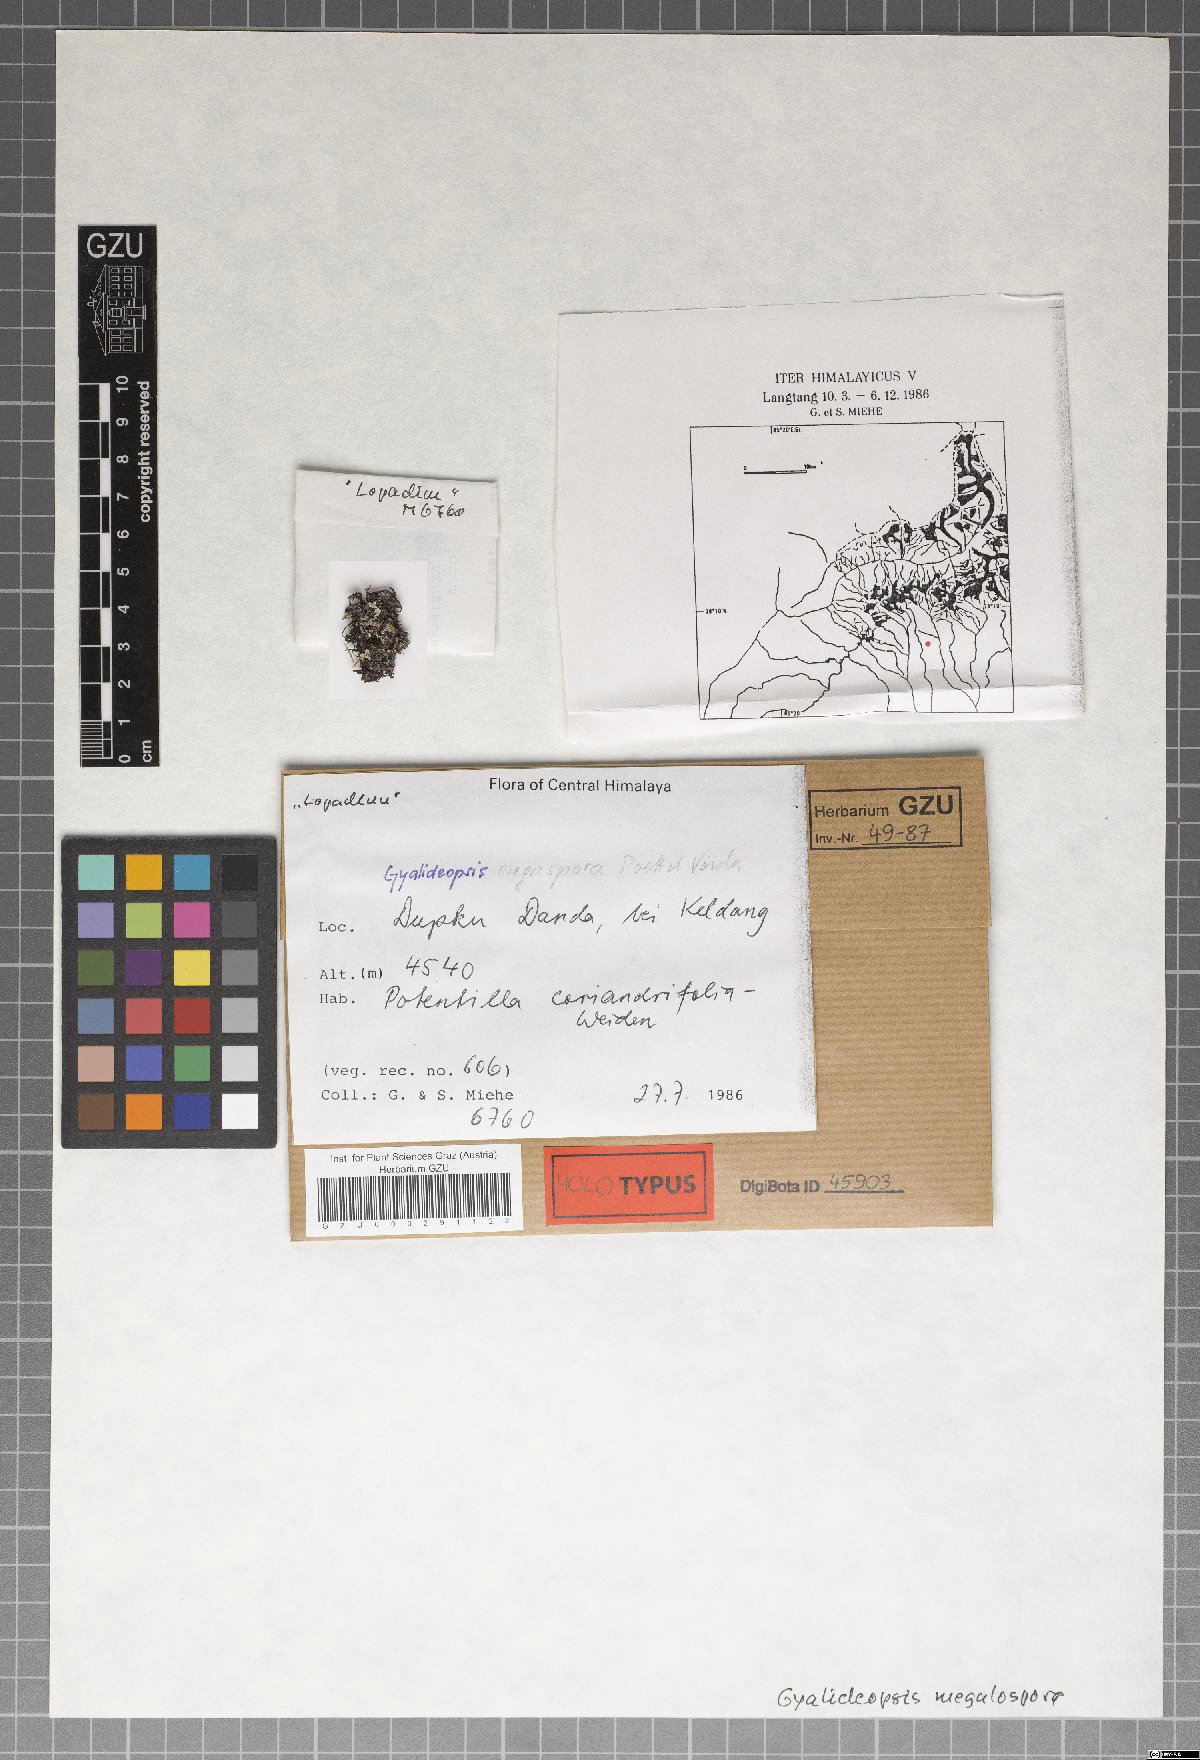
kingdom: Fungi
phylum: Ascomycota
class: Lecanoromycetes
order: Ostropales
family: Gomphillaceae
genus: Gyalideopsis
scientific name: Gyalideopsis megalospora
